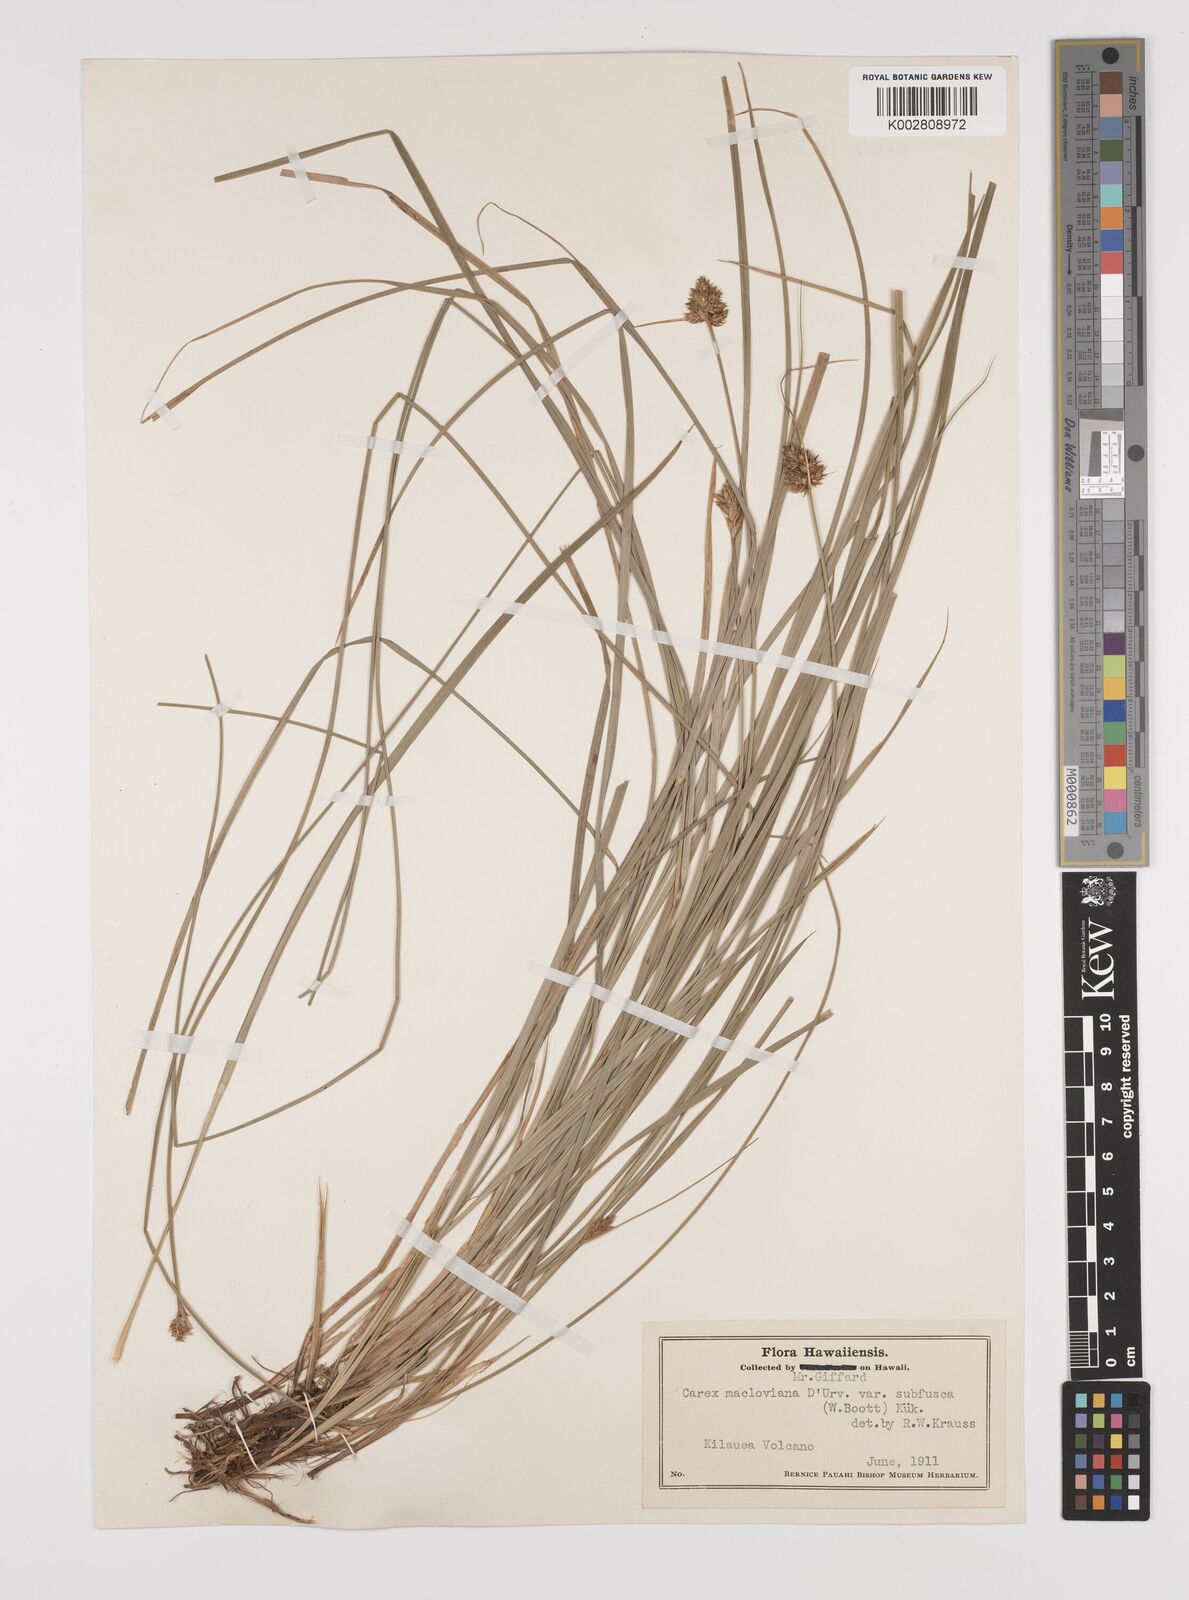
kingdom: Plantae
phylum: Tracheophyta
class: Liliopsida
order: Poales
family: Cyperaceae
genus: Carex
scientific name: Carex subfusca
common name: Brown sedge
